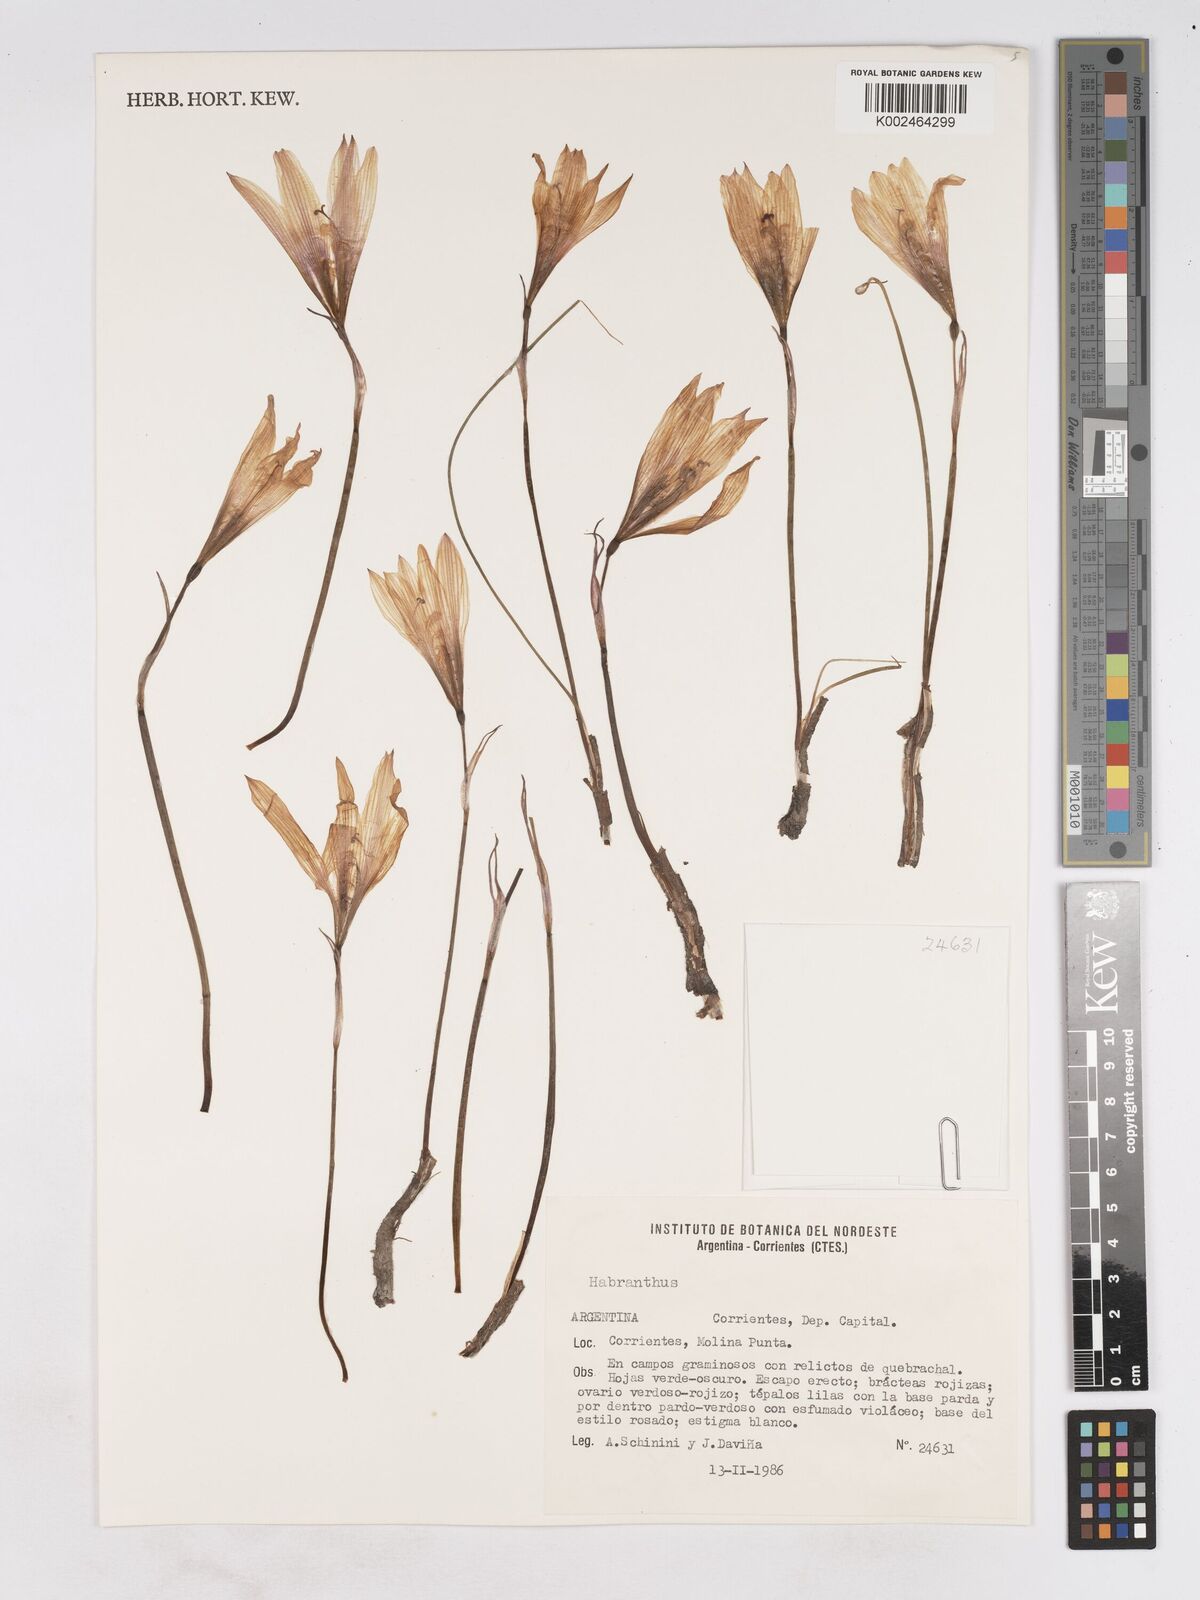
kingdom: Plantae
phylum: Tracheophyta
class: Liliopsida
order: Asparagales
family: Amaryllidaceae
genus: Zephyranthes
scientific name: Zephyranthes
